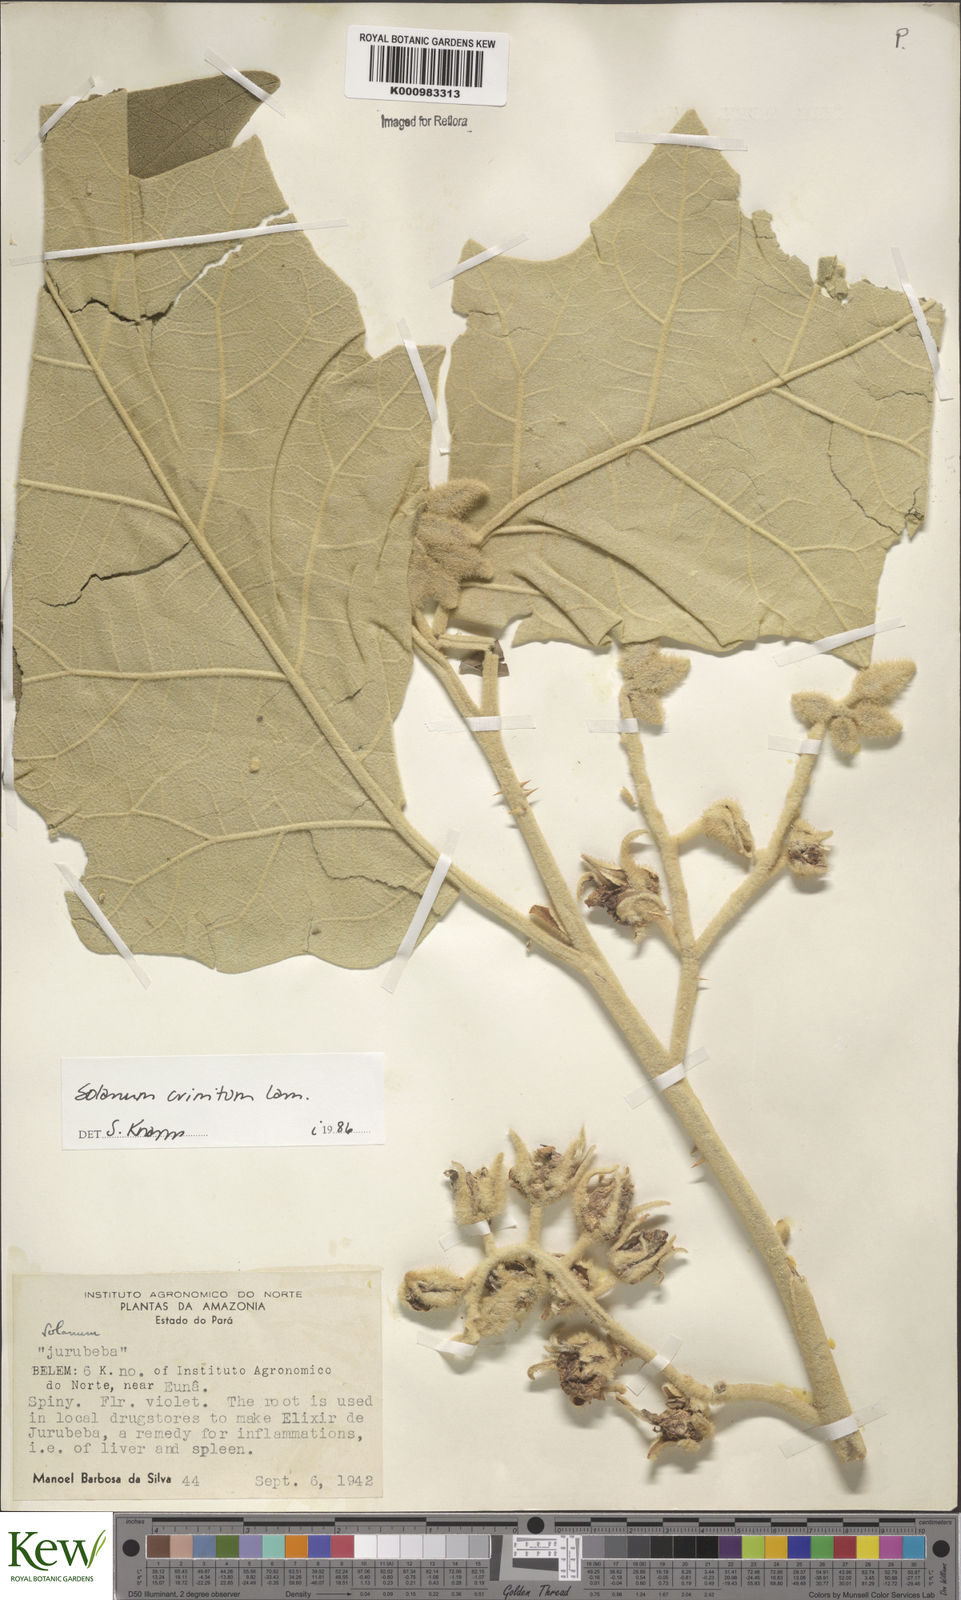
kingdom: Plantae
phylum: Tracheophyta
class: Magnoliopsida
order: Solanales
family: Solanaceae
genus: Solanum
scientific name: Solanum crinitum
